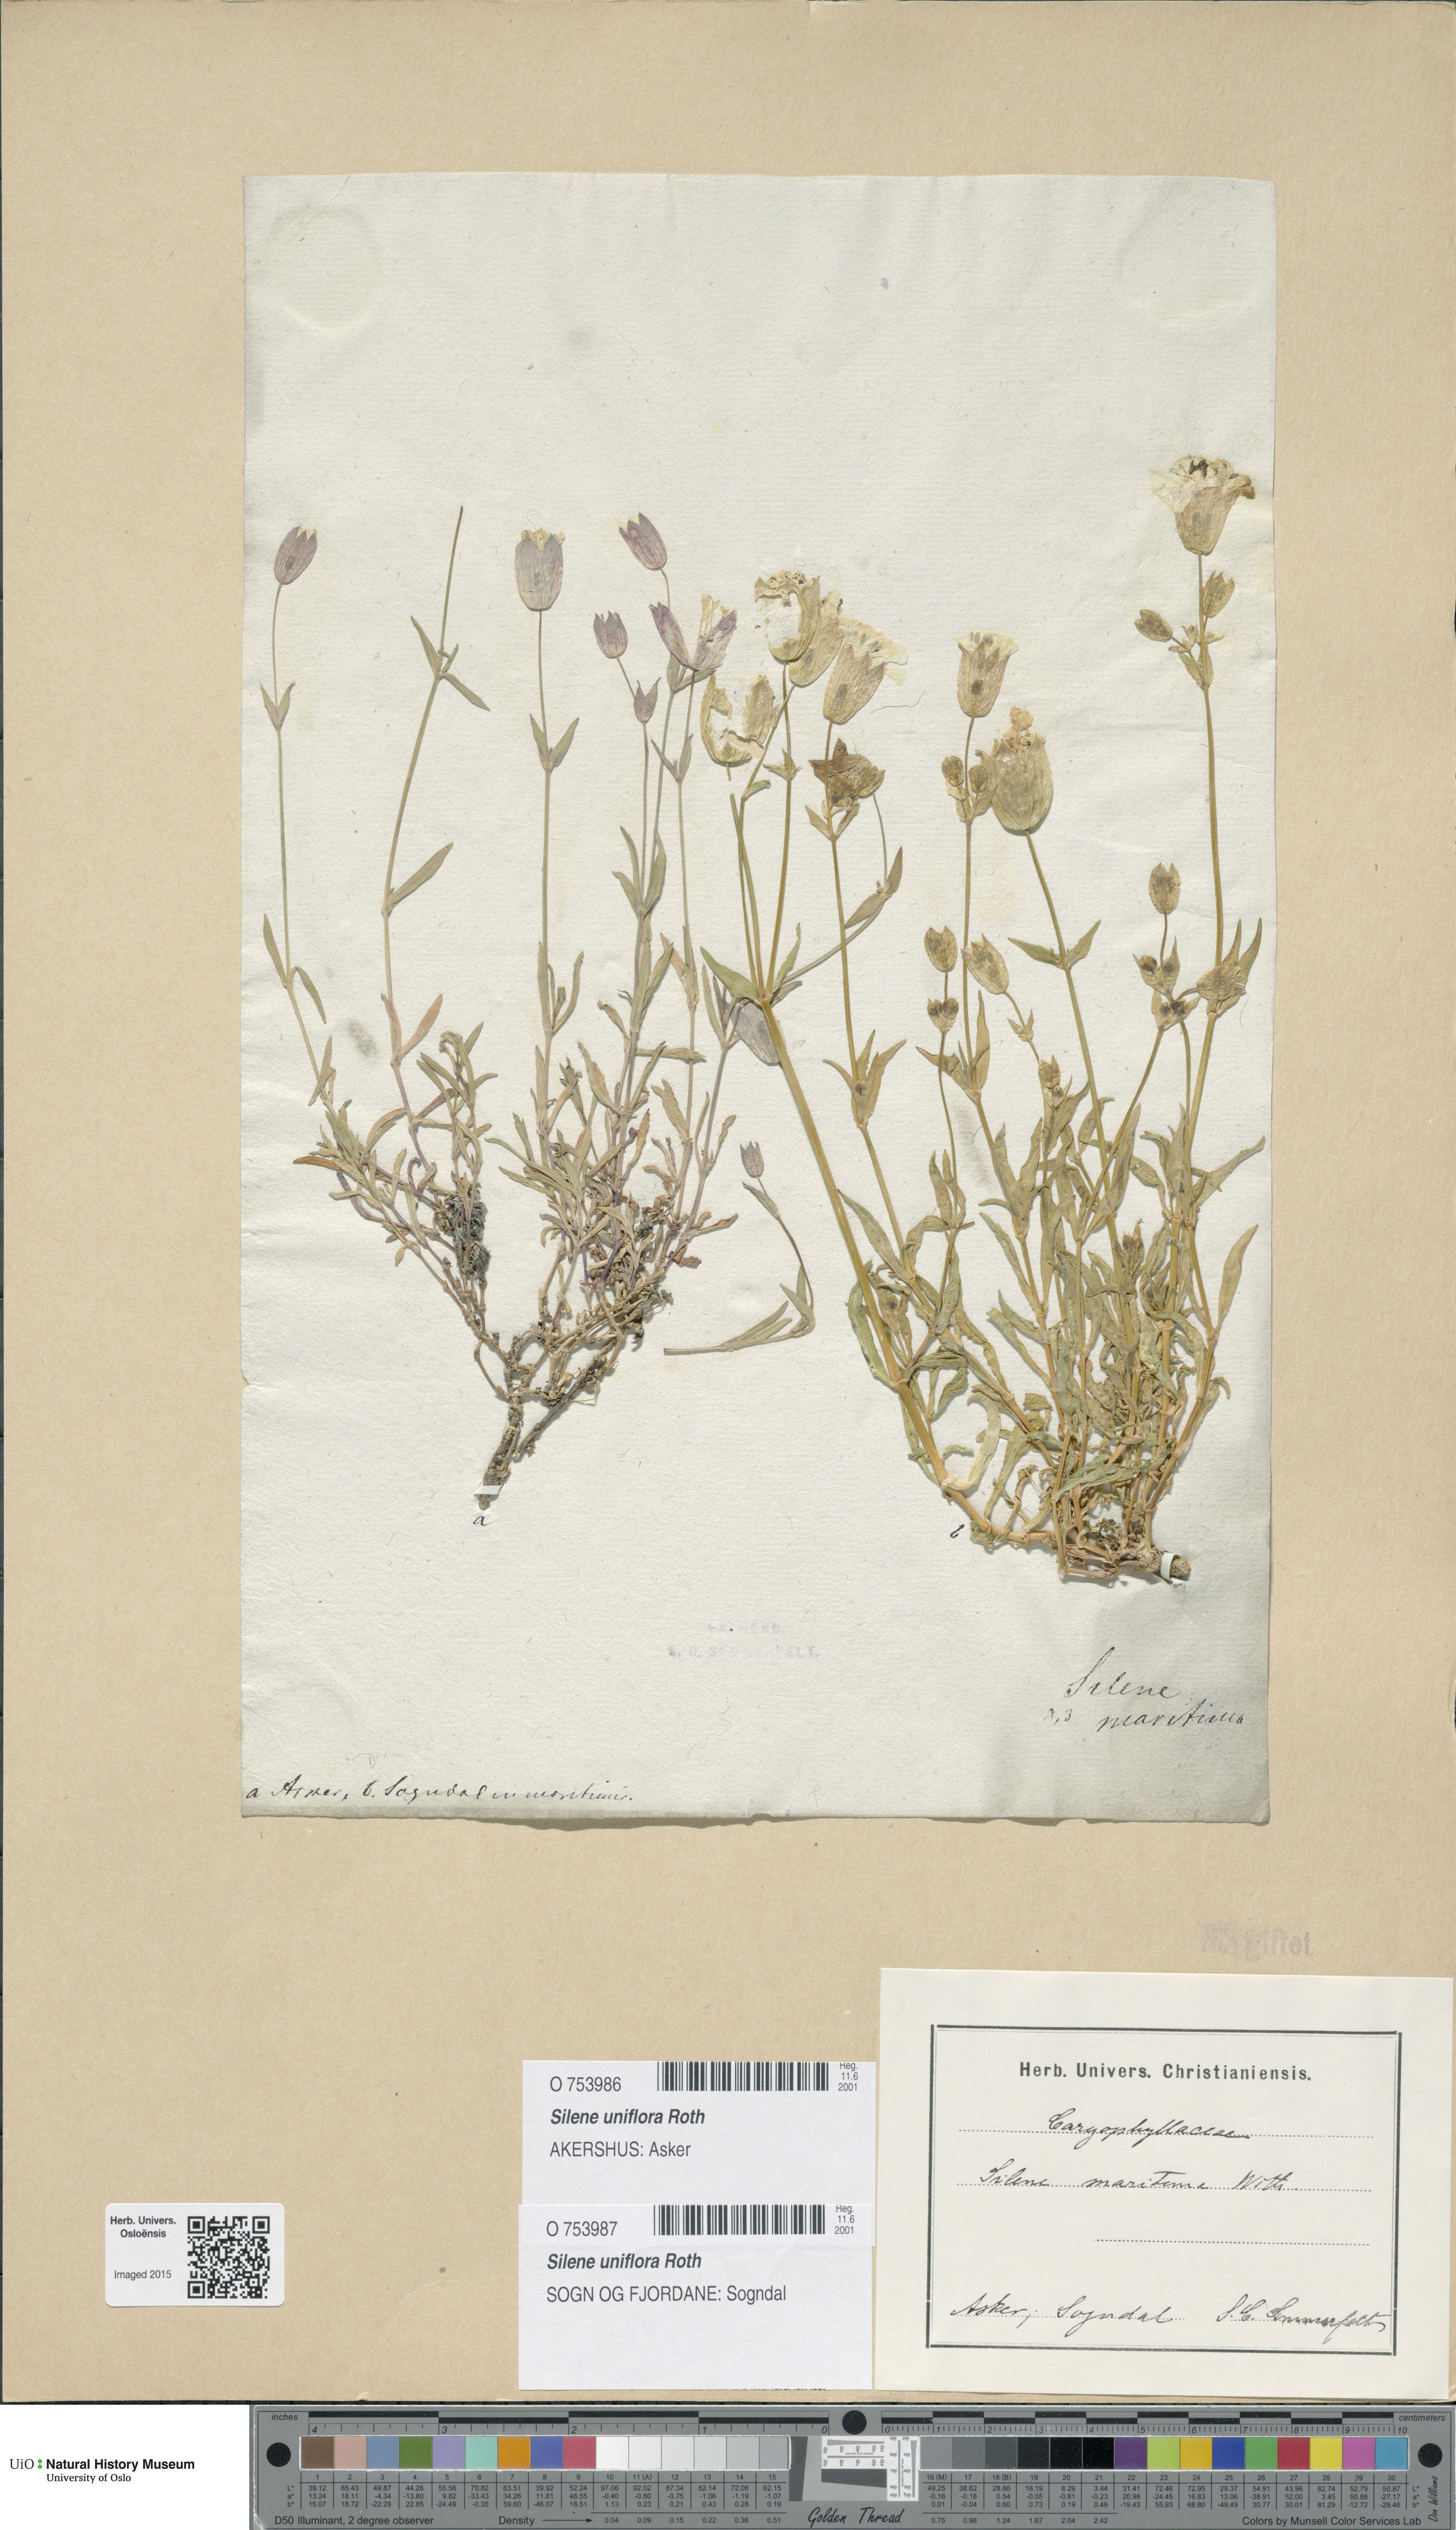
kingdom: Plantae
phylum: Tracheophyta
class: Magnoliopsida
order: Caryophyllales
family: Caryophyllaceae
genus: Silene
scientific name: Silene uniflora
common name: Sea campion
